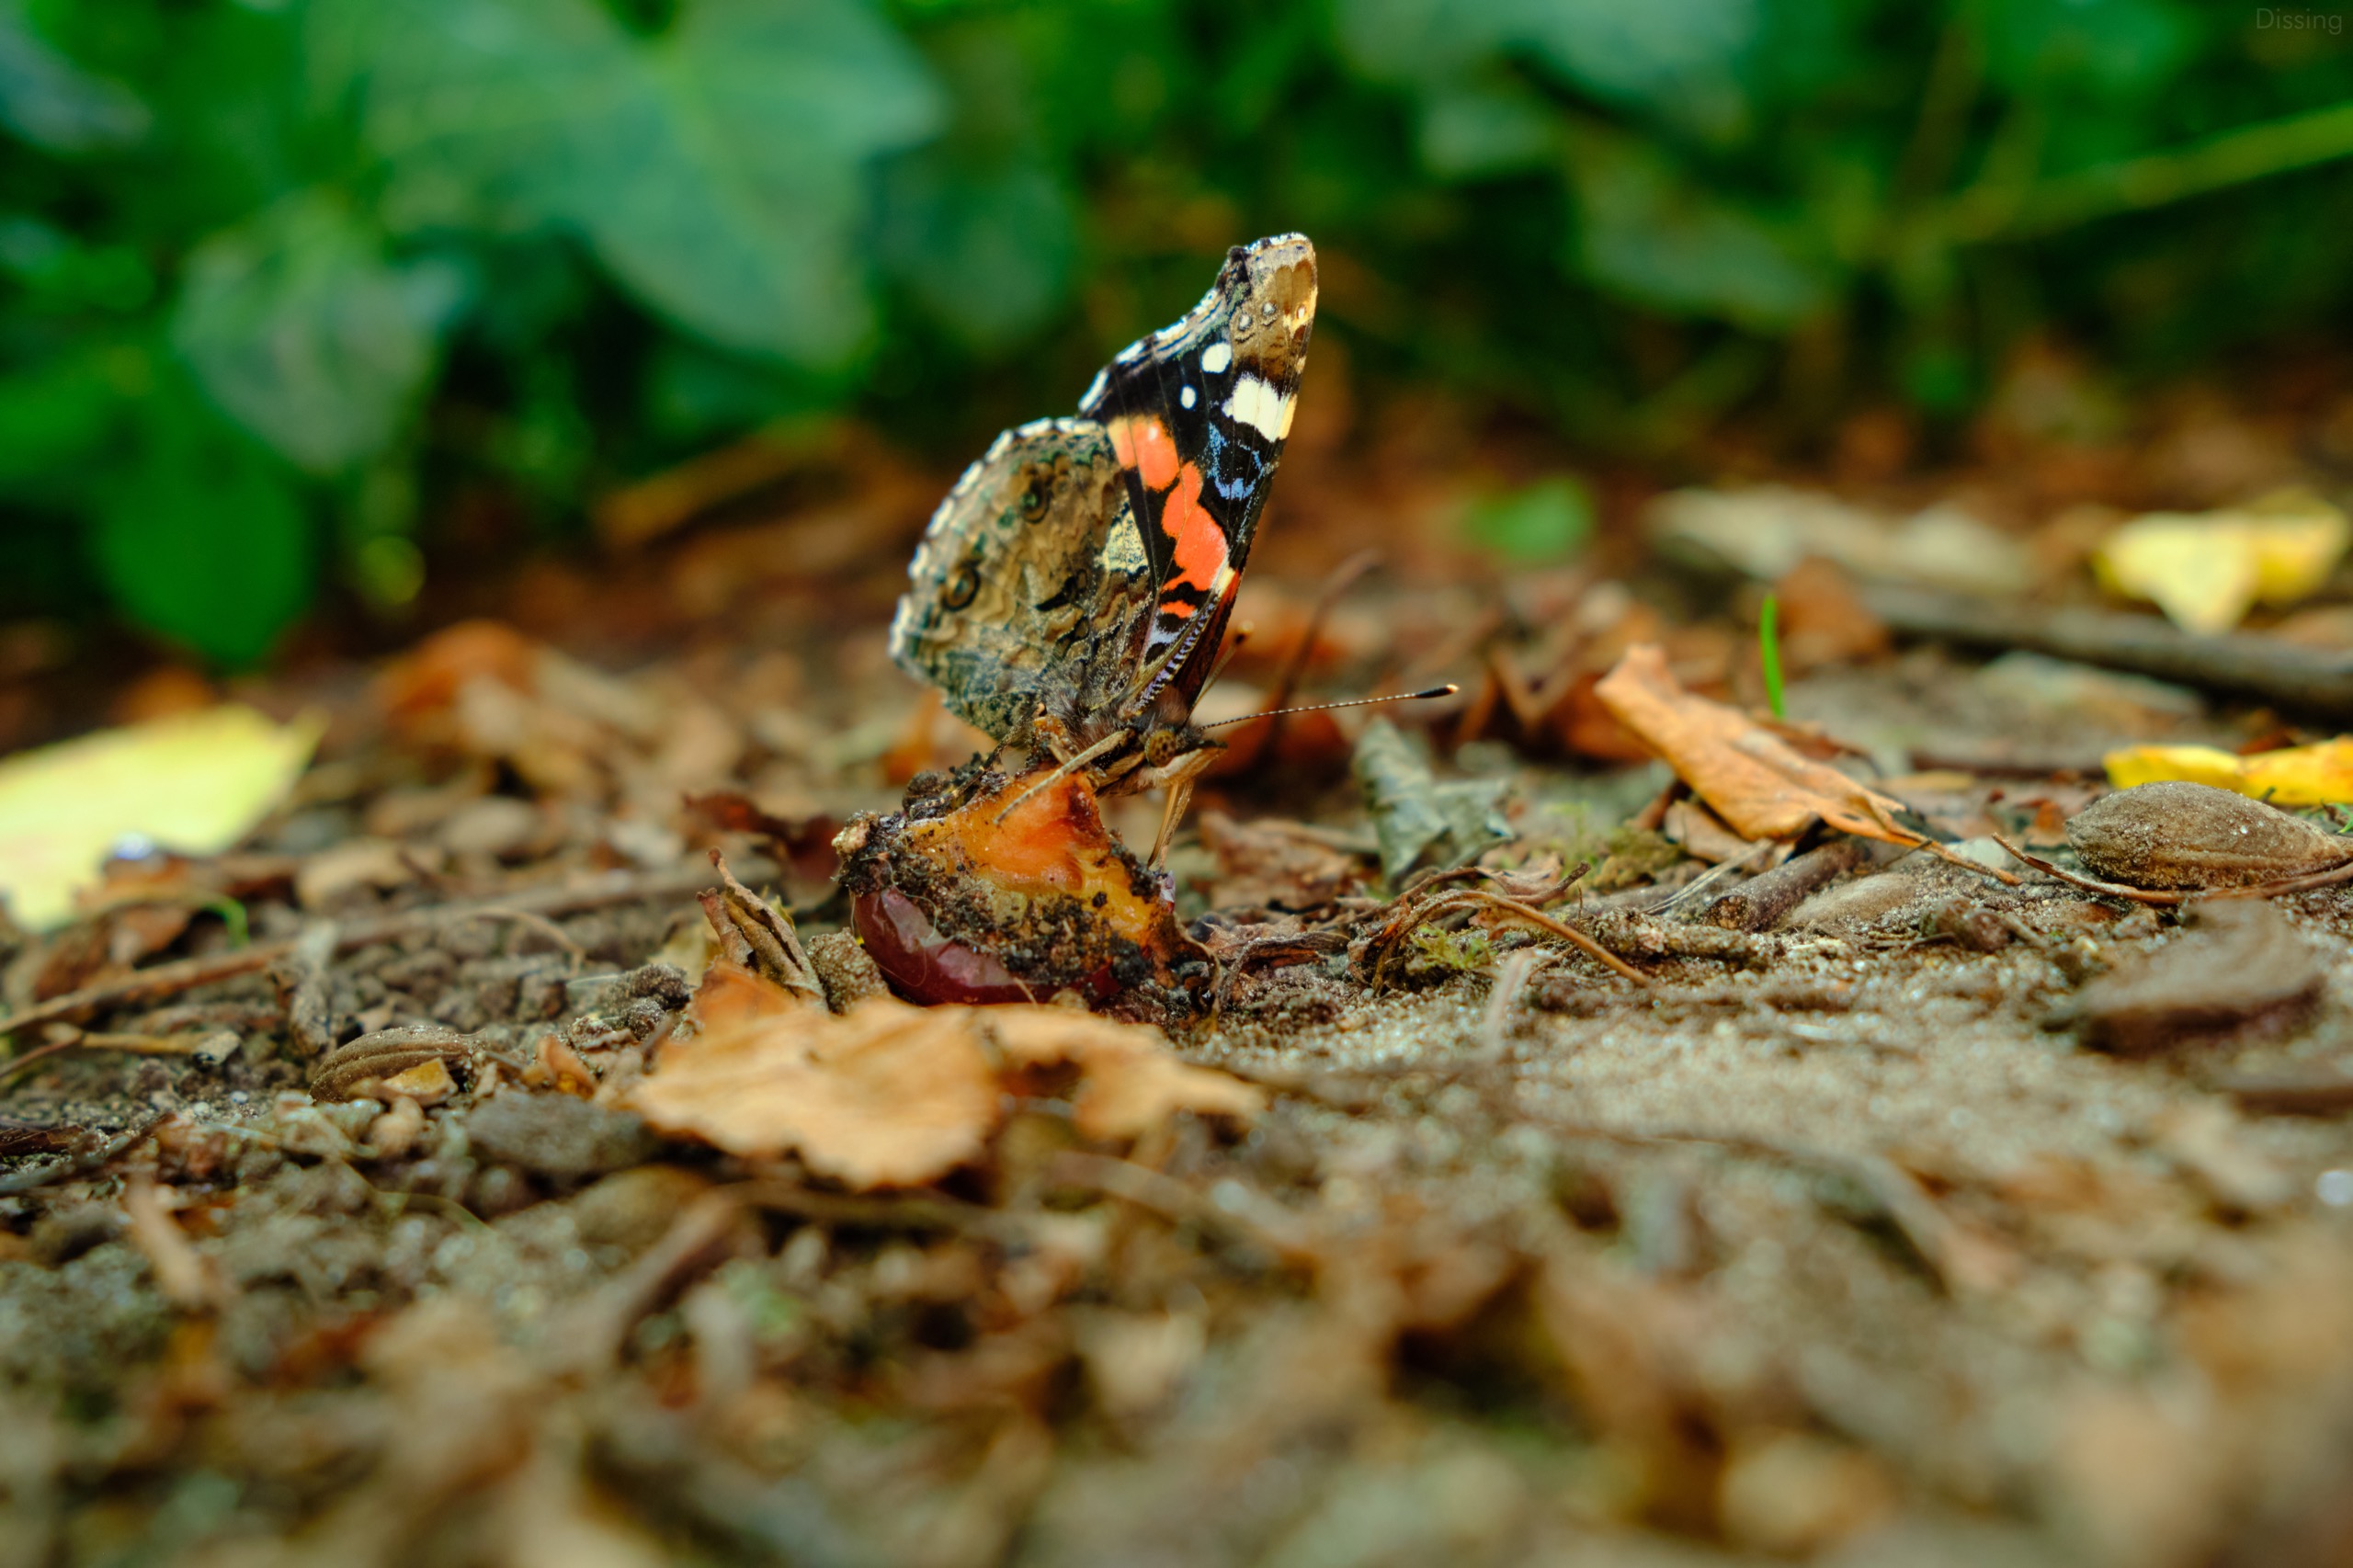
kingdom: Animalia
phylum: Arthropoda
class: Insecta
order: Lepidoptera
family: Nymphalidae
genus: Vanessa
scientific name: Vanessa atalanta
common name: Admiral
